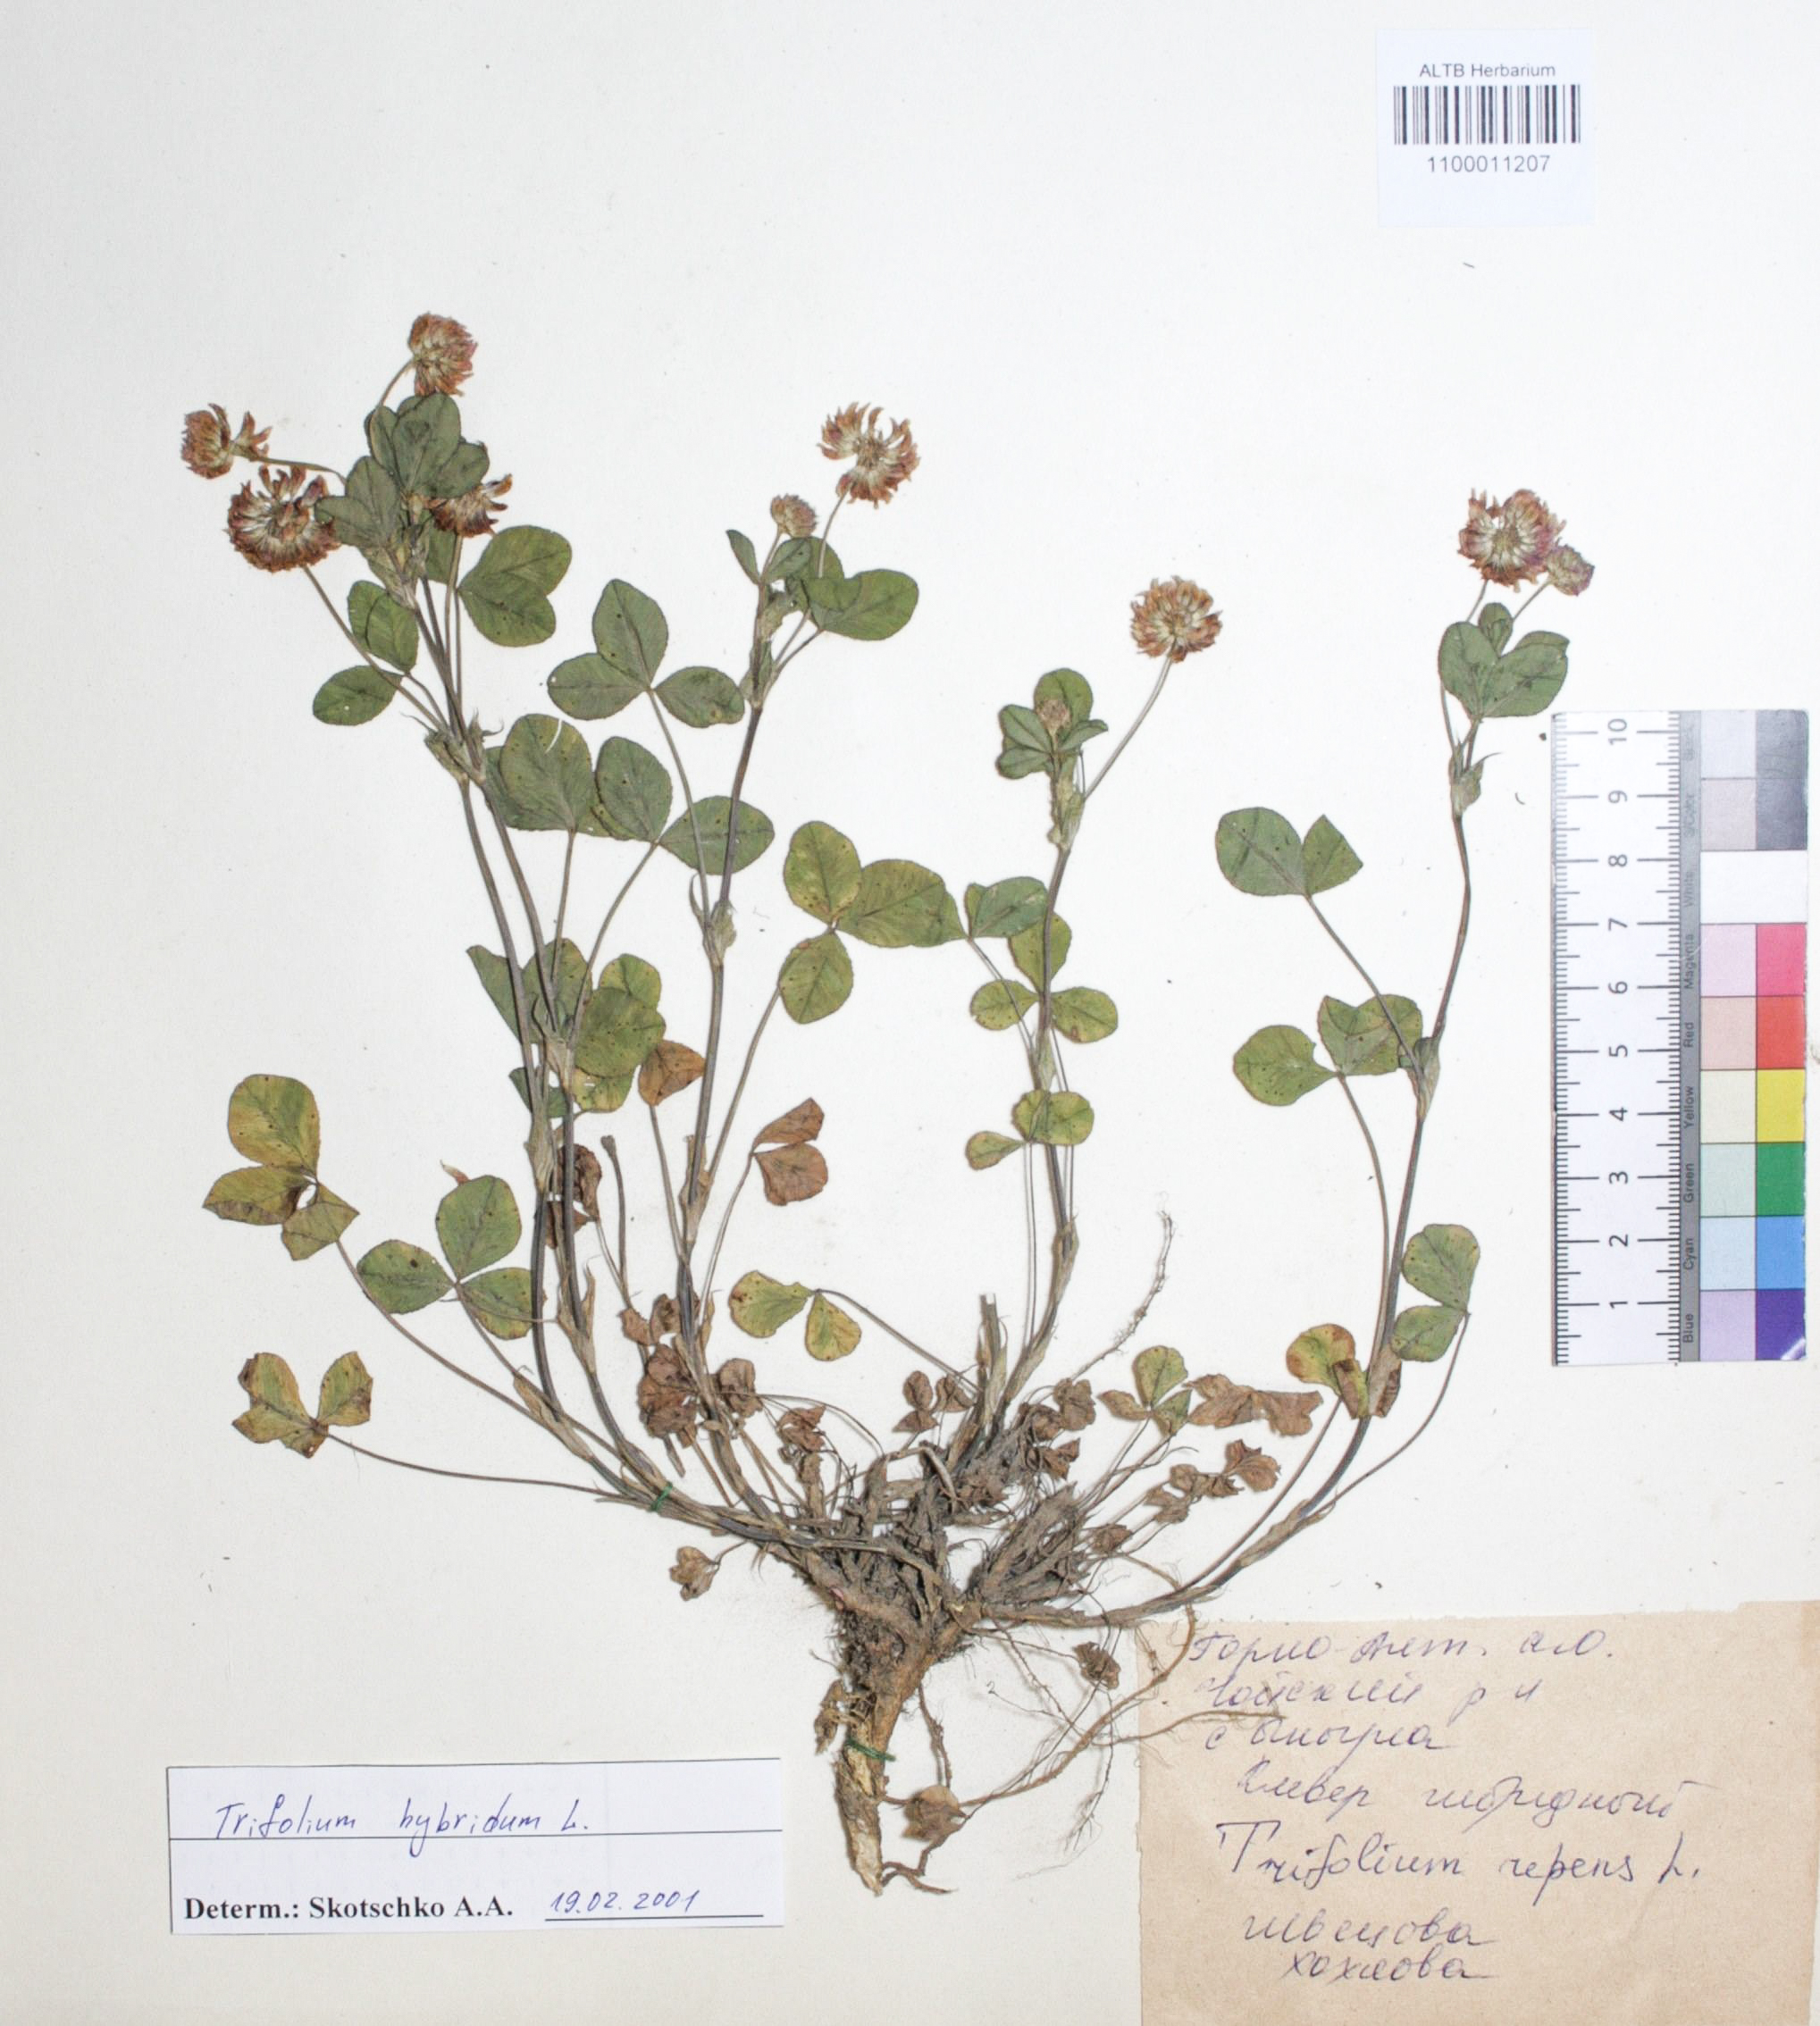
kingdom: Plantae
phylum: Tracheophyta
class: Magnoliopsida
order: Fabales
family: Fabaceae
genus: Trifolium
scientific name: Trifolium repens
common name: White clover
